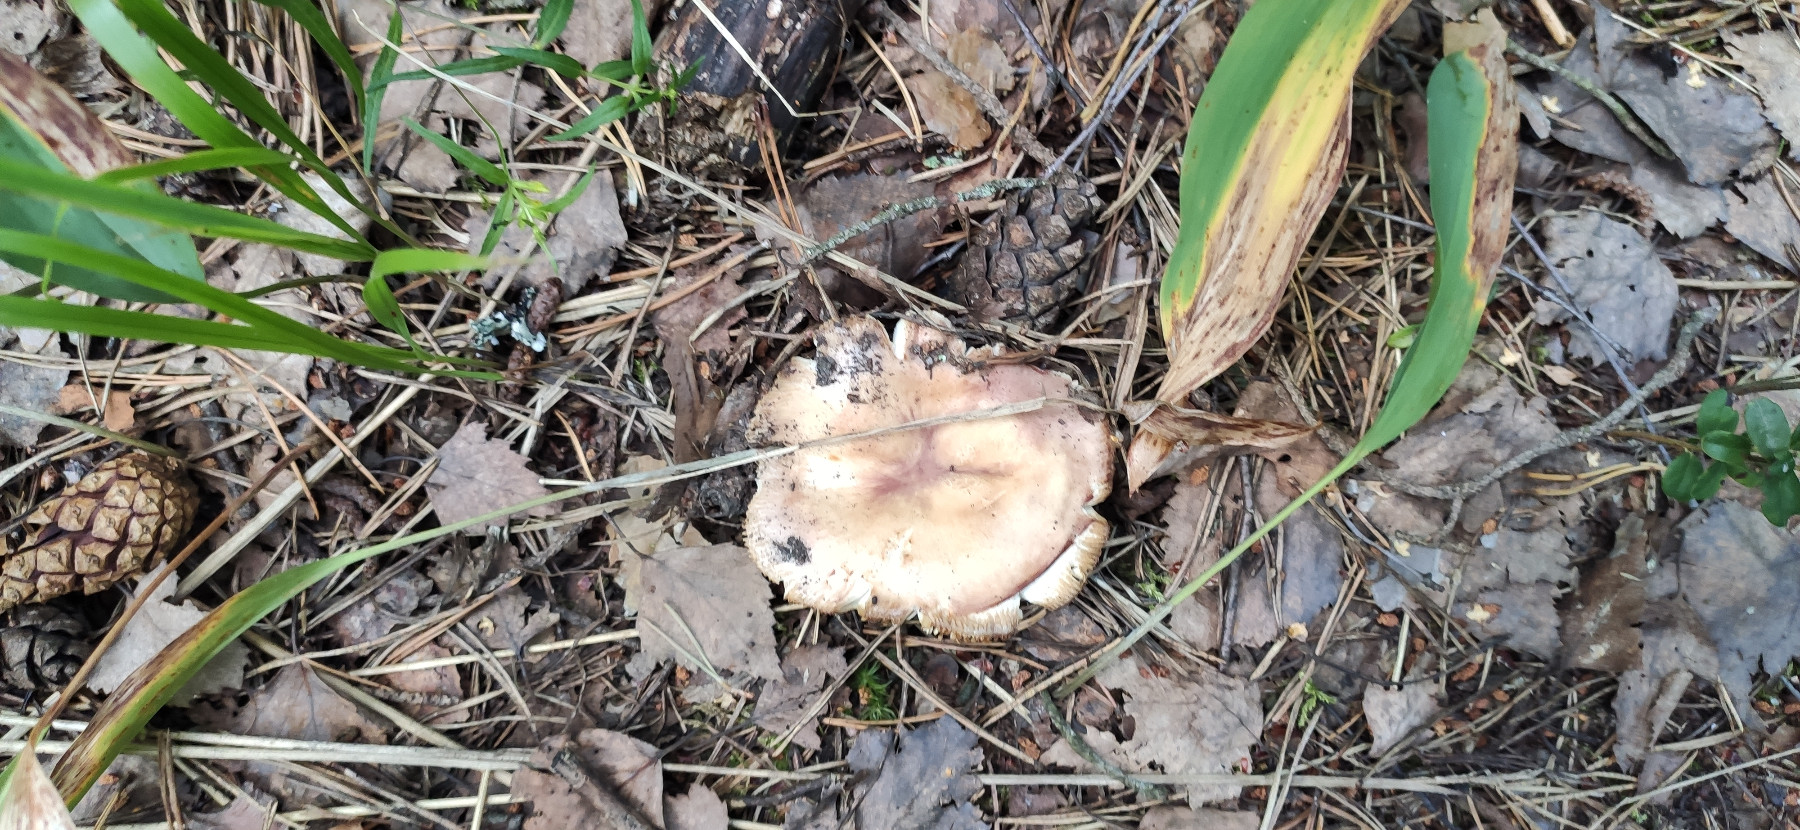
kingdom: Fungi
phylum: Basidiomycota
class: Agaricomycetes
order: Russulales
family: Russulaceae
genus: Russula
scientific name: Russula
